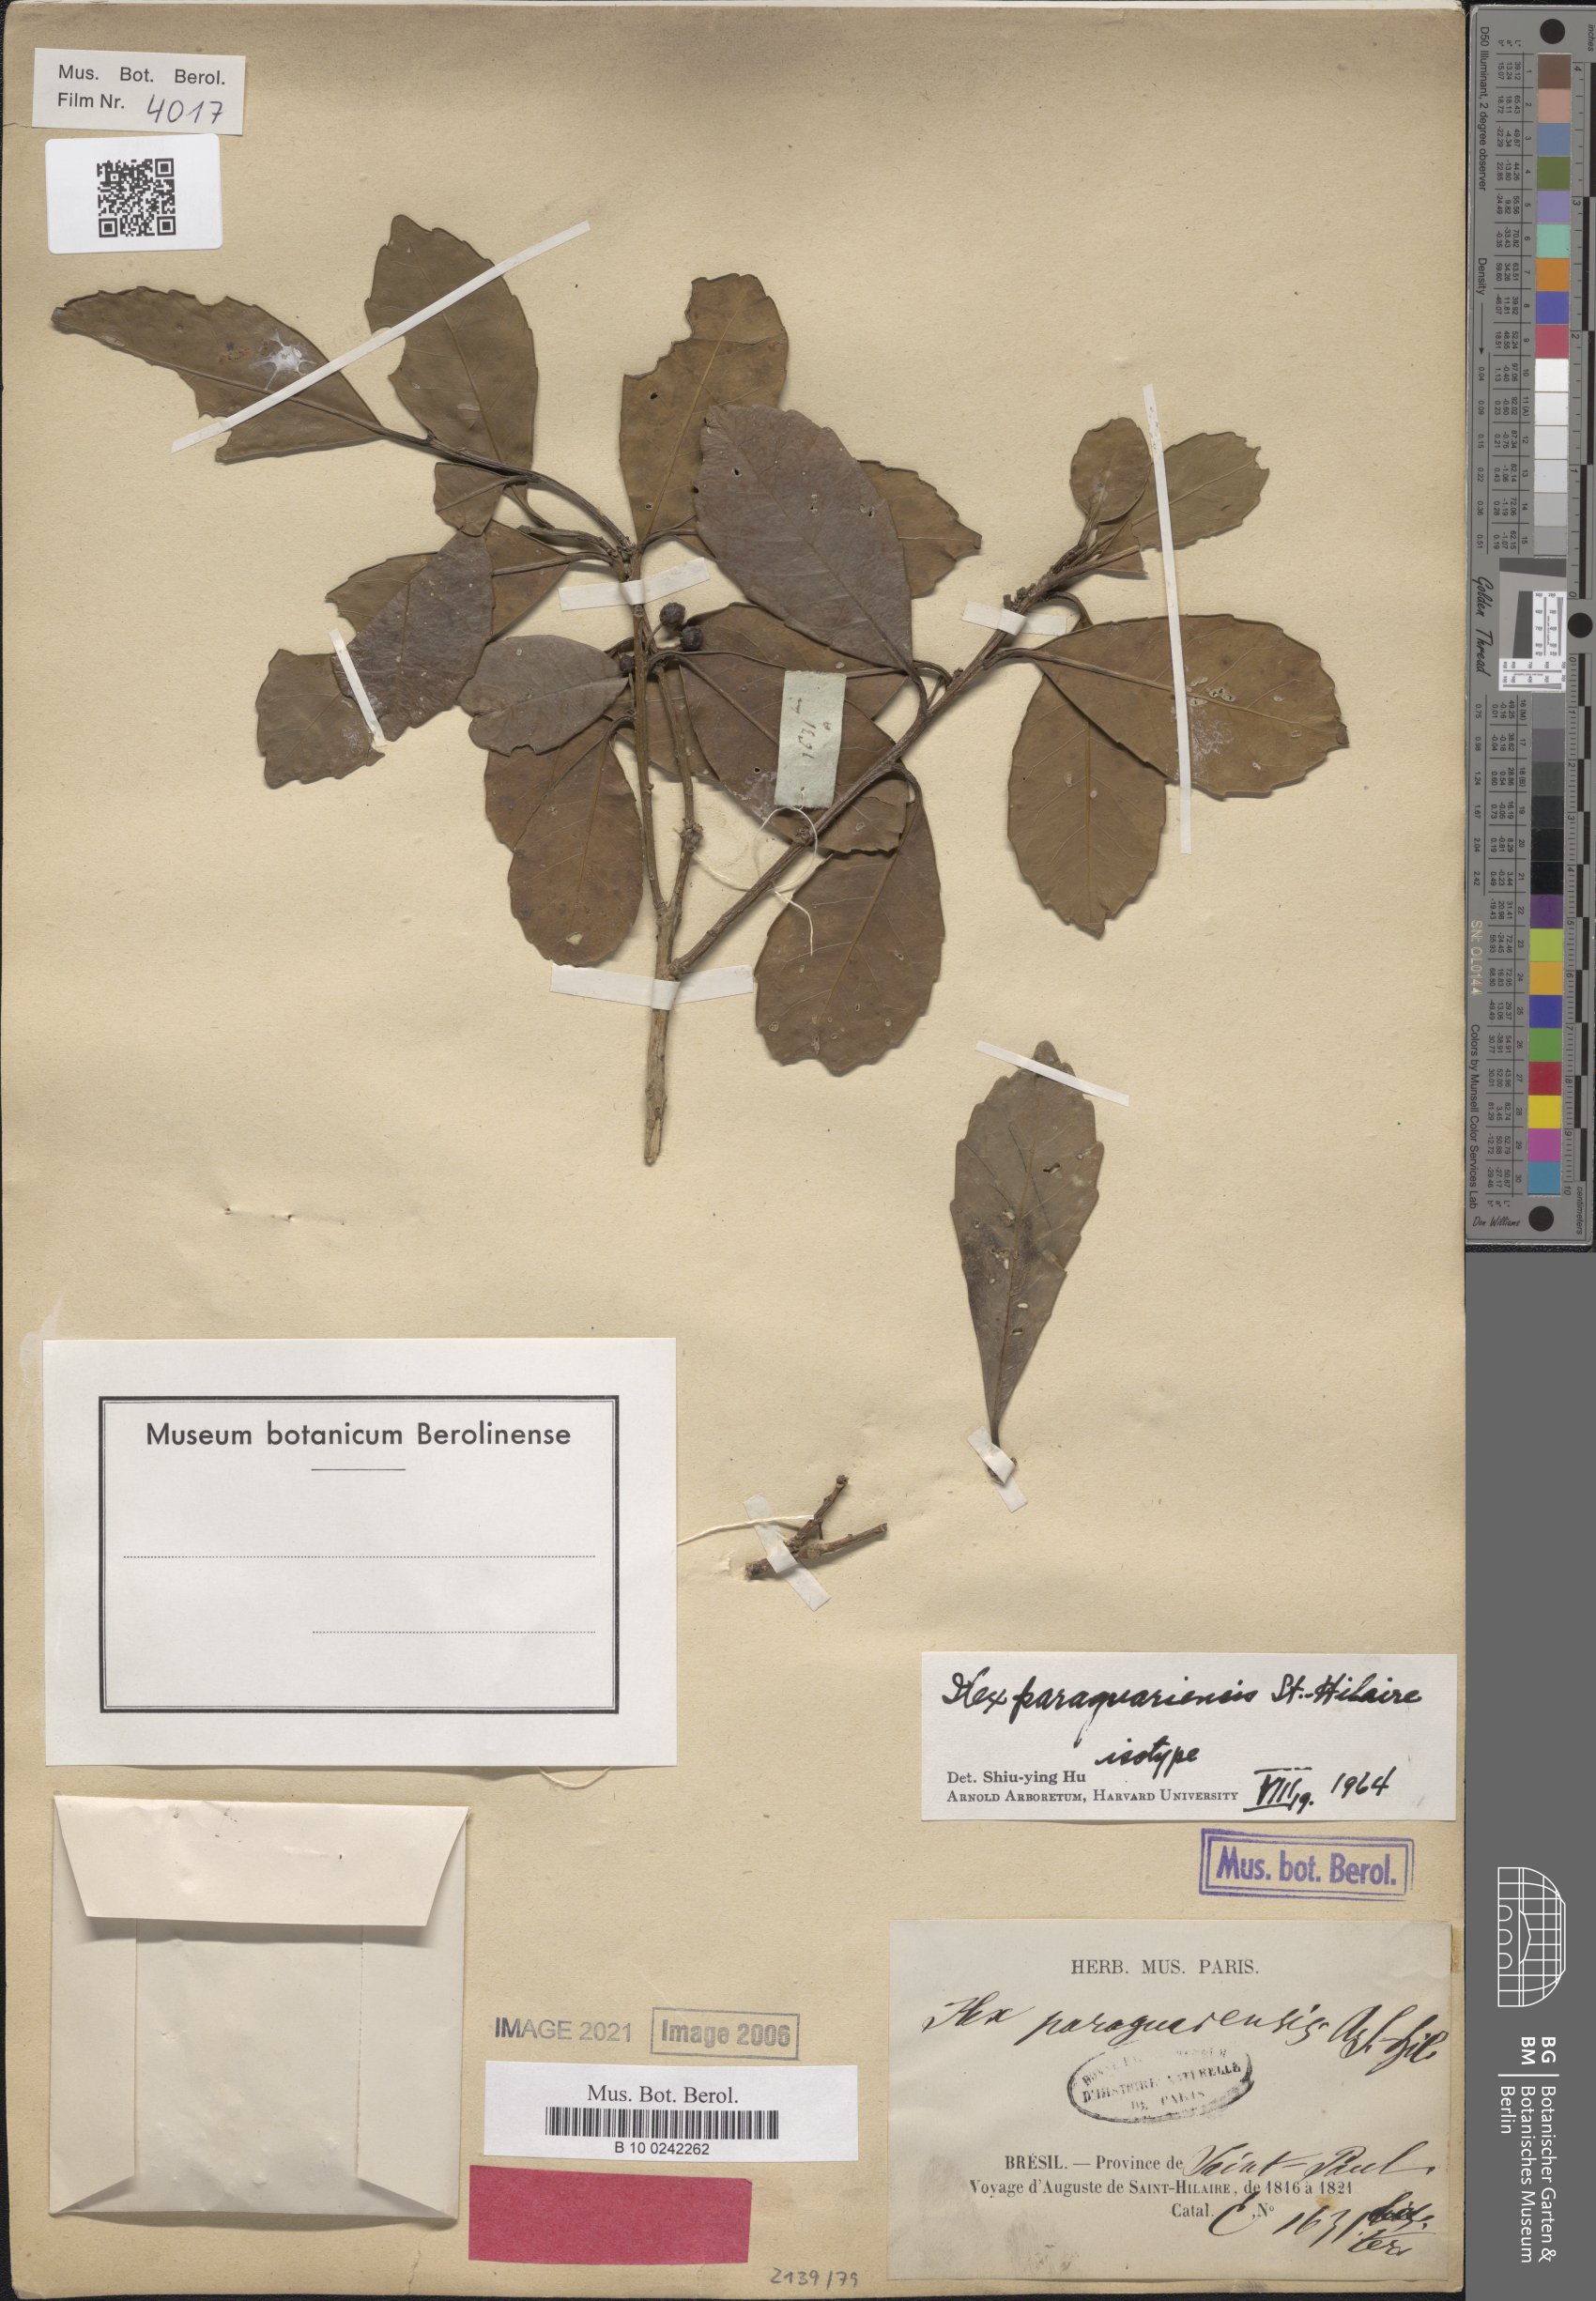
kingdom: Plantae
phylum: Tracheophyta
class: Magnoliopsida
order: Aquifoliales
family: Aquifoliaceae
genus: Ilex
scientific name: Ilex paraguariensis
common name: Paraguay tea
